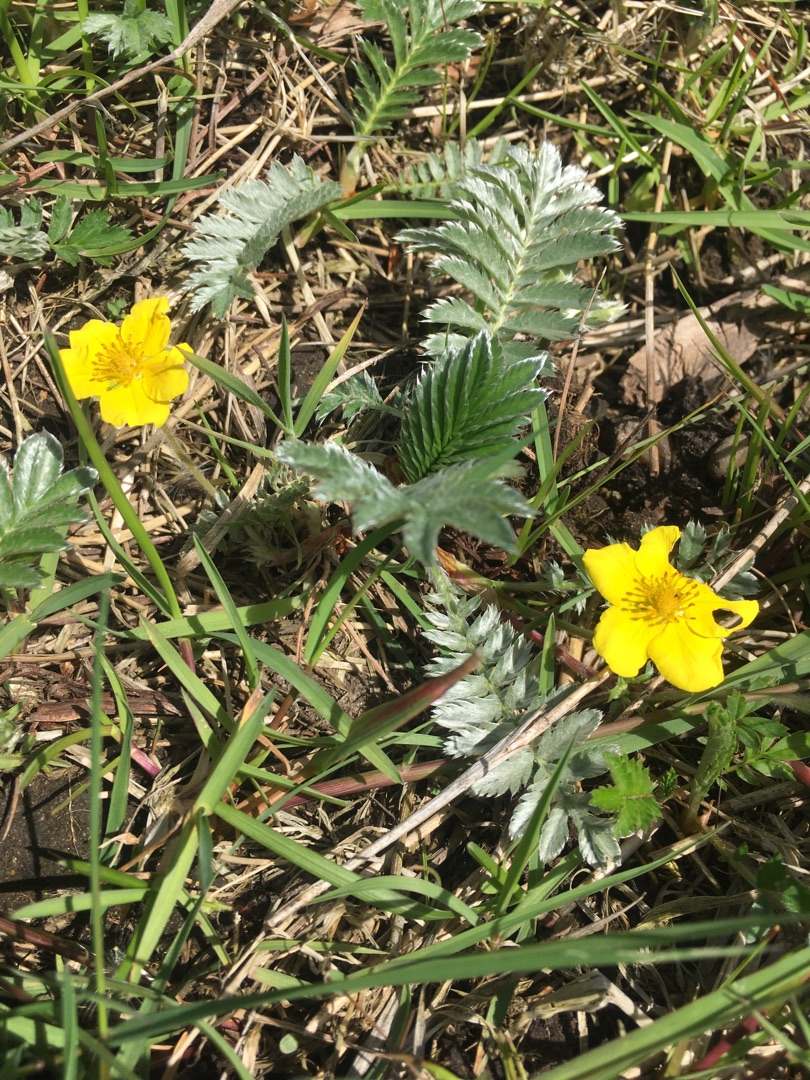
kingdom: Plantae
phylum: Tracheophyta
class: Magnoliopsida
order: Rosales
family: Rosaceae
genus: Argentina
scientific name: Argentina anserina
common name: Gåsepotentil
